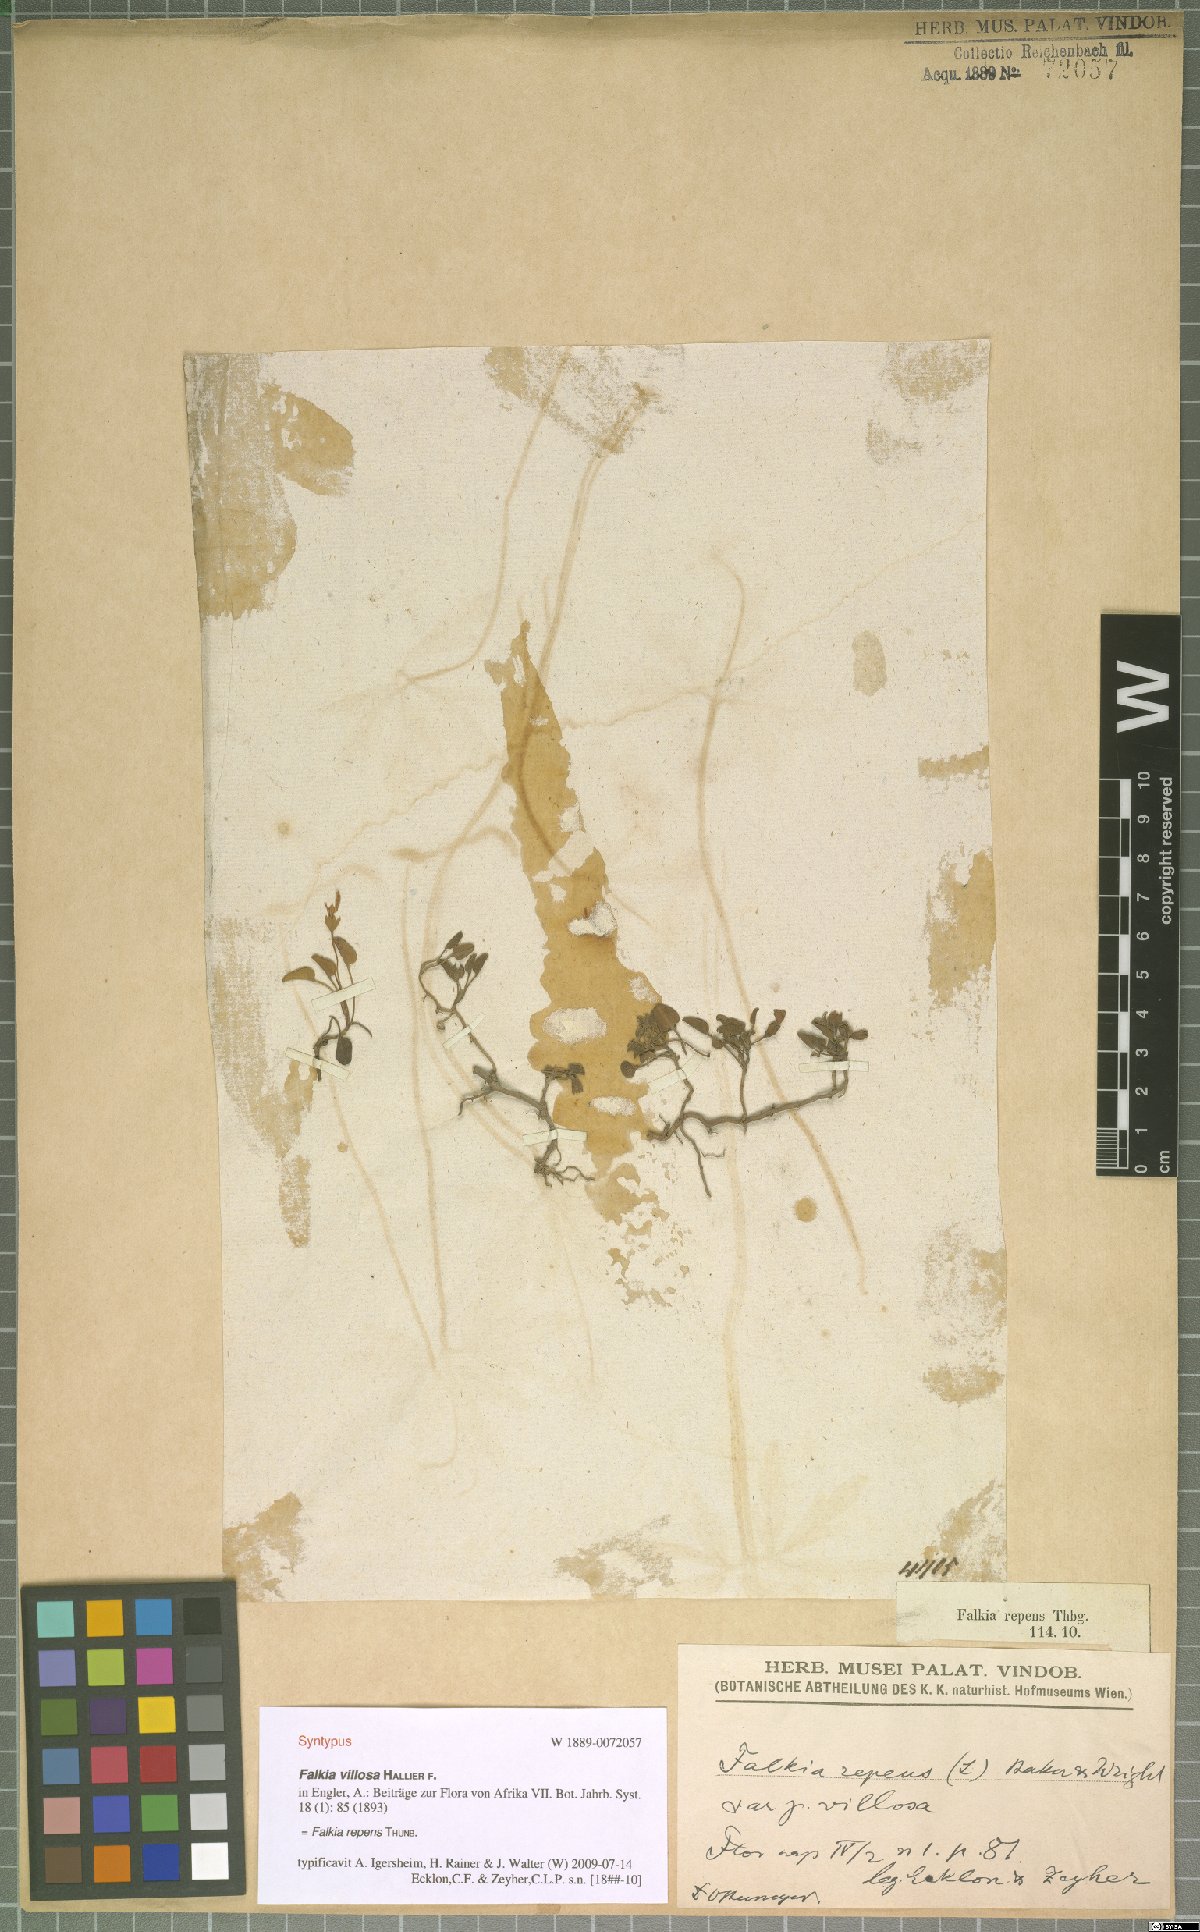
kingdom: Plantae
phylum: Tracheophyta
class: Magnoliopsida
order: Solanales
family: Convolvulaceae
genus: Falkia
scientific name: Falkia repens
